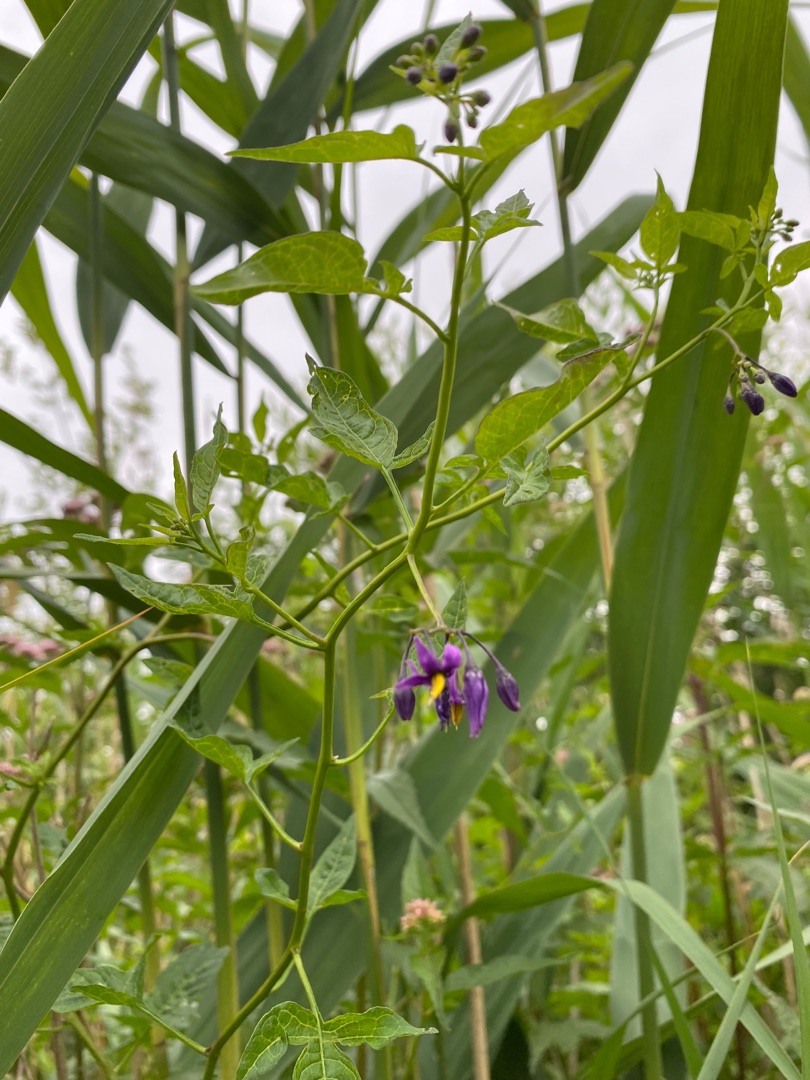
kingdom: Plantae
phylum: Tracheophyta
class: Magnoliopsida
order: Solanales
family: Solanaceae
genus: Solanum
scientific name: Solanum dulcamara
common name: Bittersød natskygge
